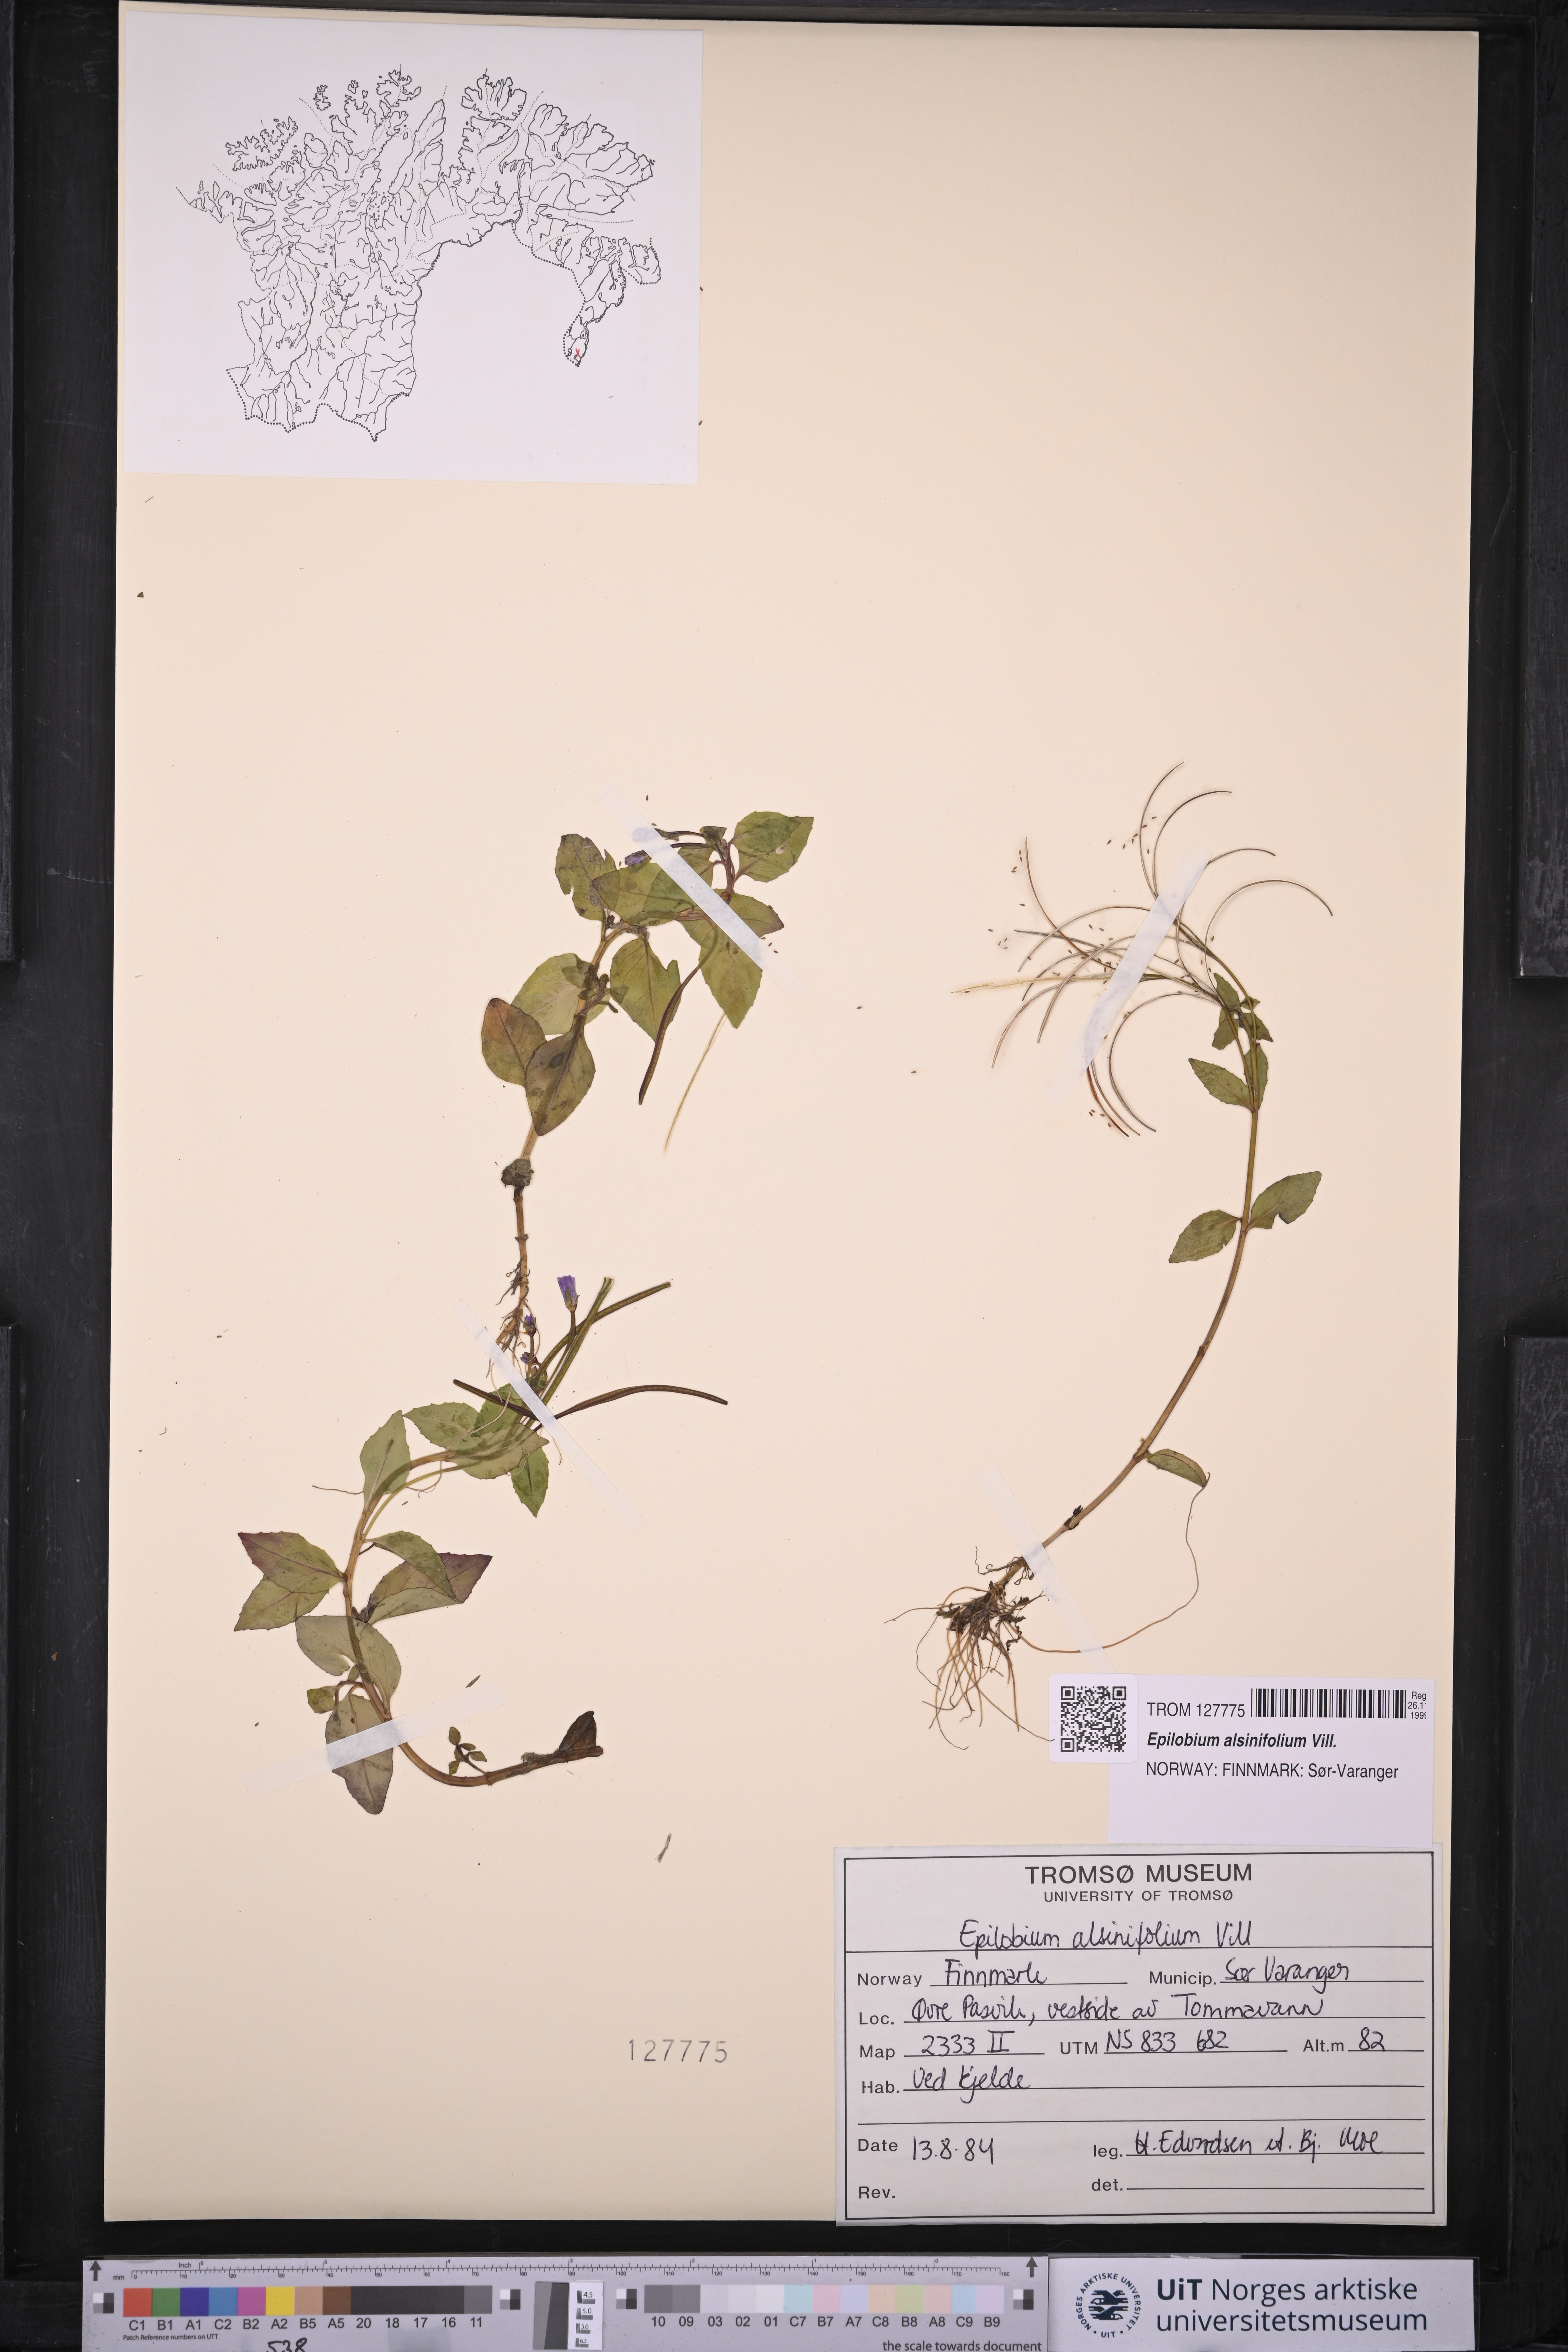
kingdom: Plantae
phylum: Tracheophyta
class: Magnoliopsida
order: Myrtales
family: Onagraceae
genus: Epilobium
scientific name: Epilobium alsinifolium
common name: Chickweed willowherb
